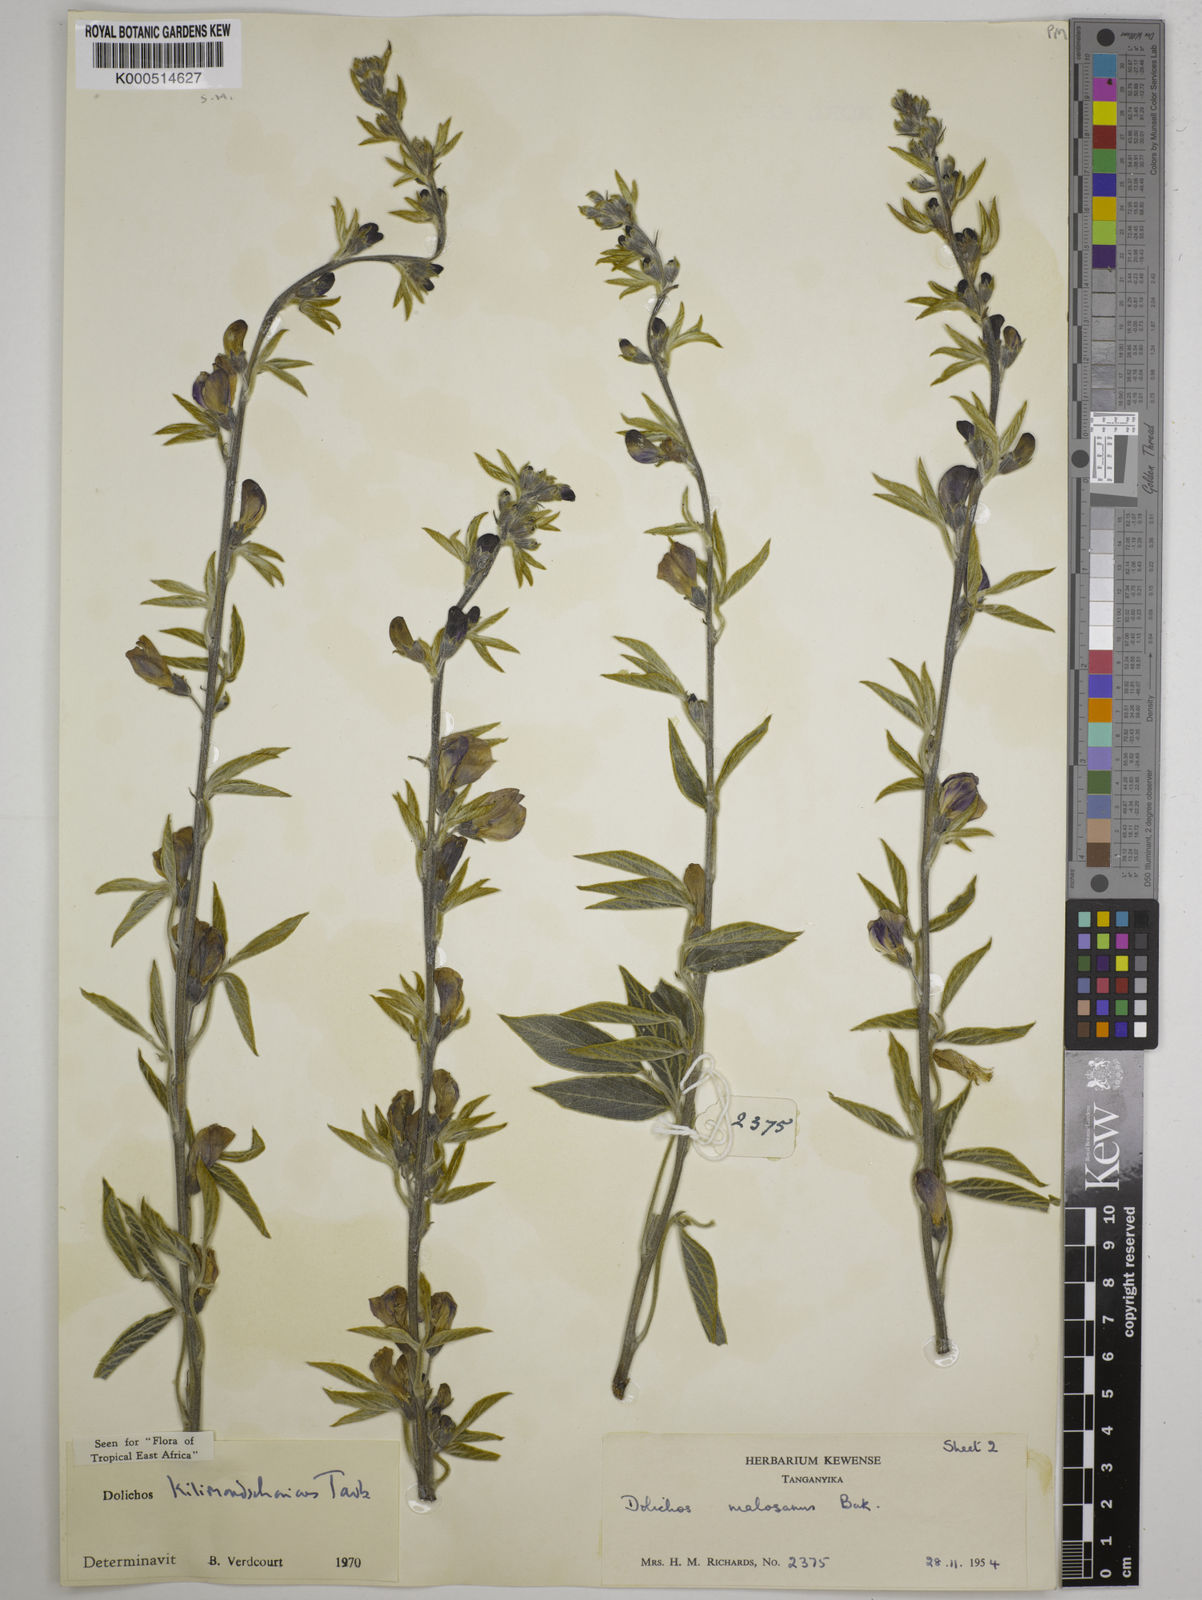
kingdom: Plantae
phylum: Tracheophyta
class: Magnoliopsida
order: Fabales
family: Fabaceae
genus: Dolichos
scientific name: Dolichos kilimandscharicus
